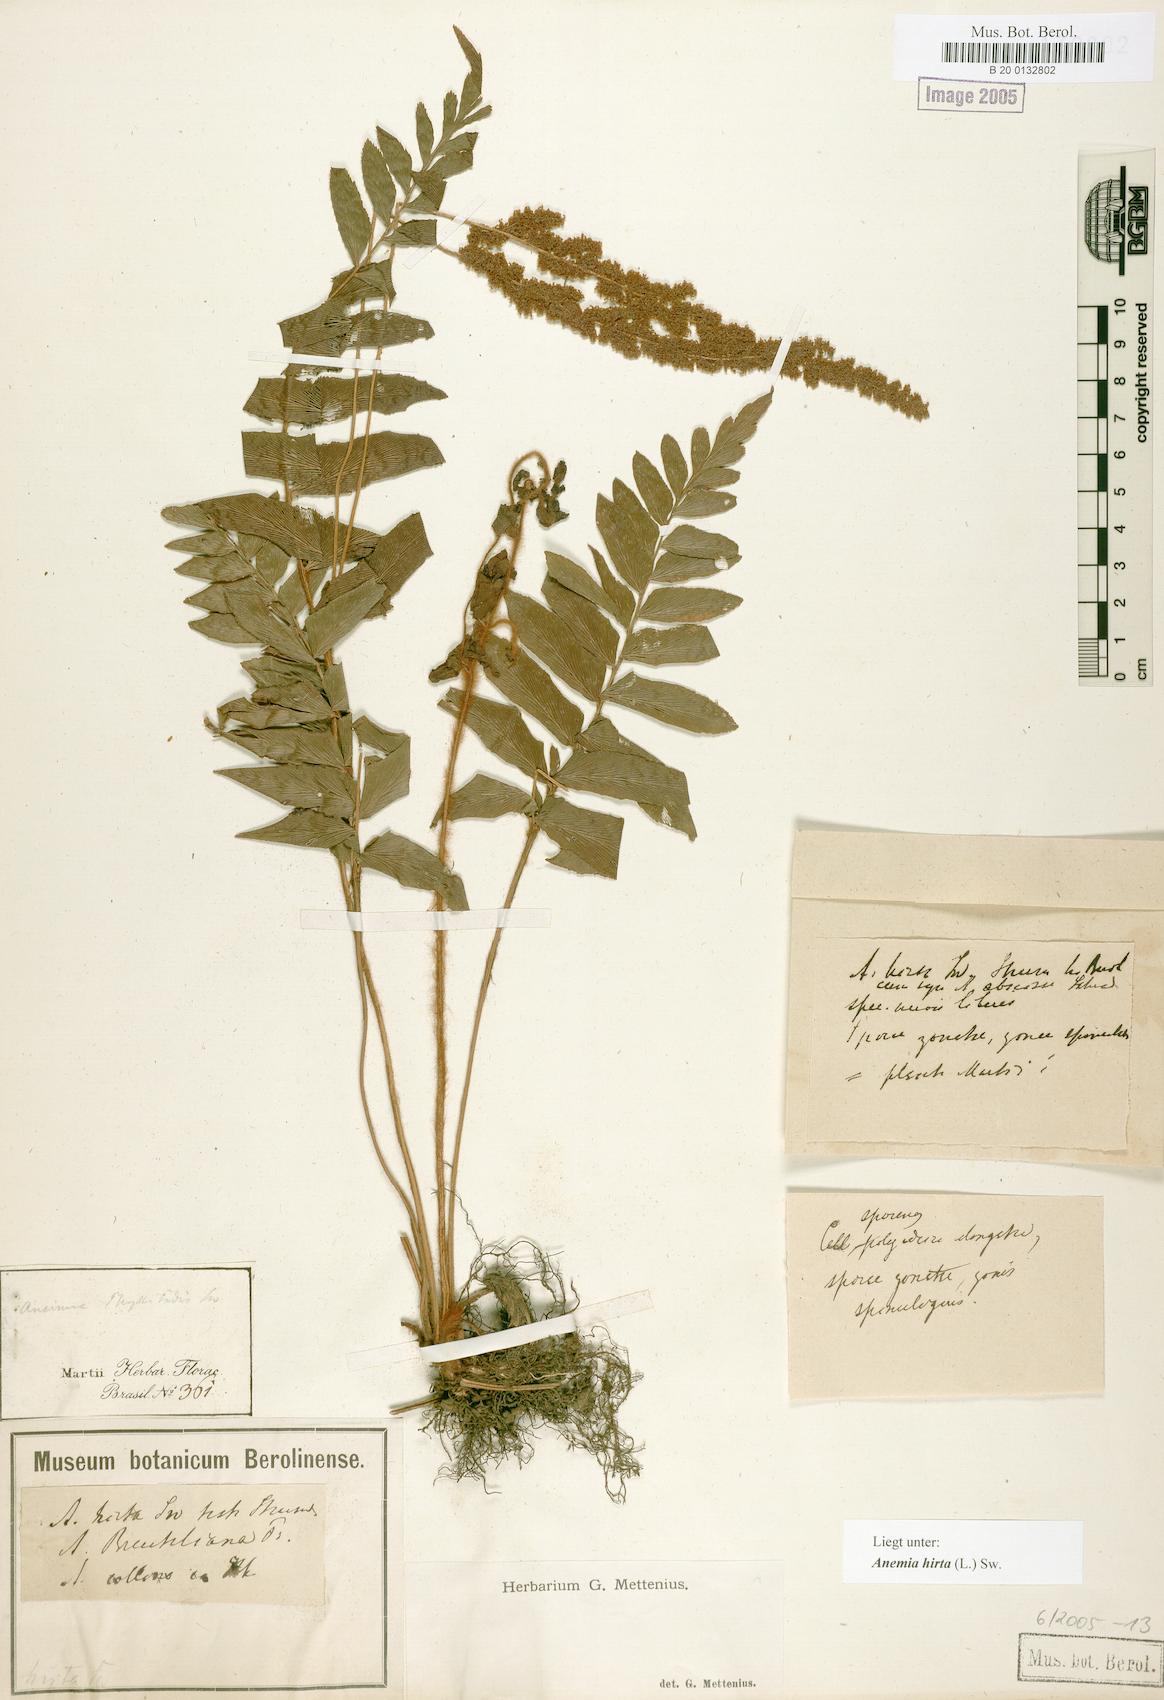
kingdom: Plantae
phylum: Tracheophyta
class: Polypodiopsida
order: Schizaeales
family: Anemiaceae
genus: Anemia
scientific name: Anemia hirta
